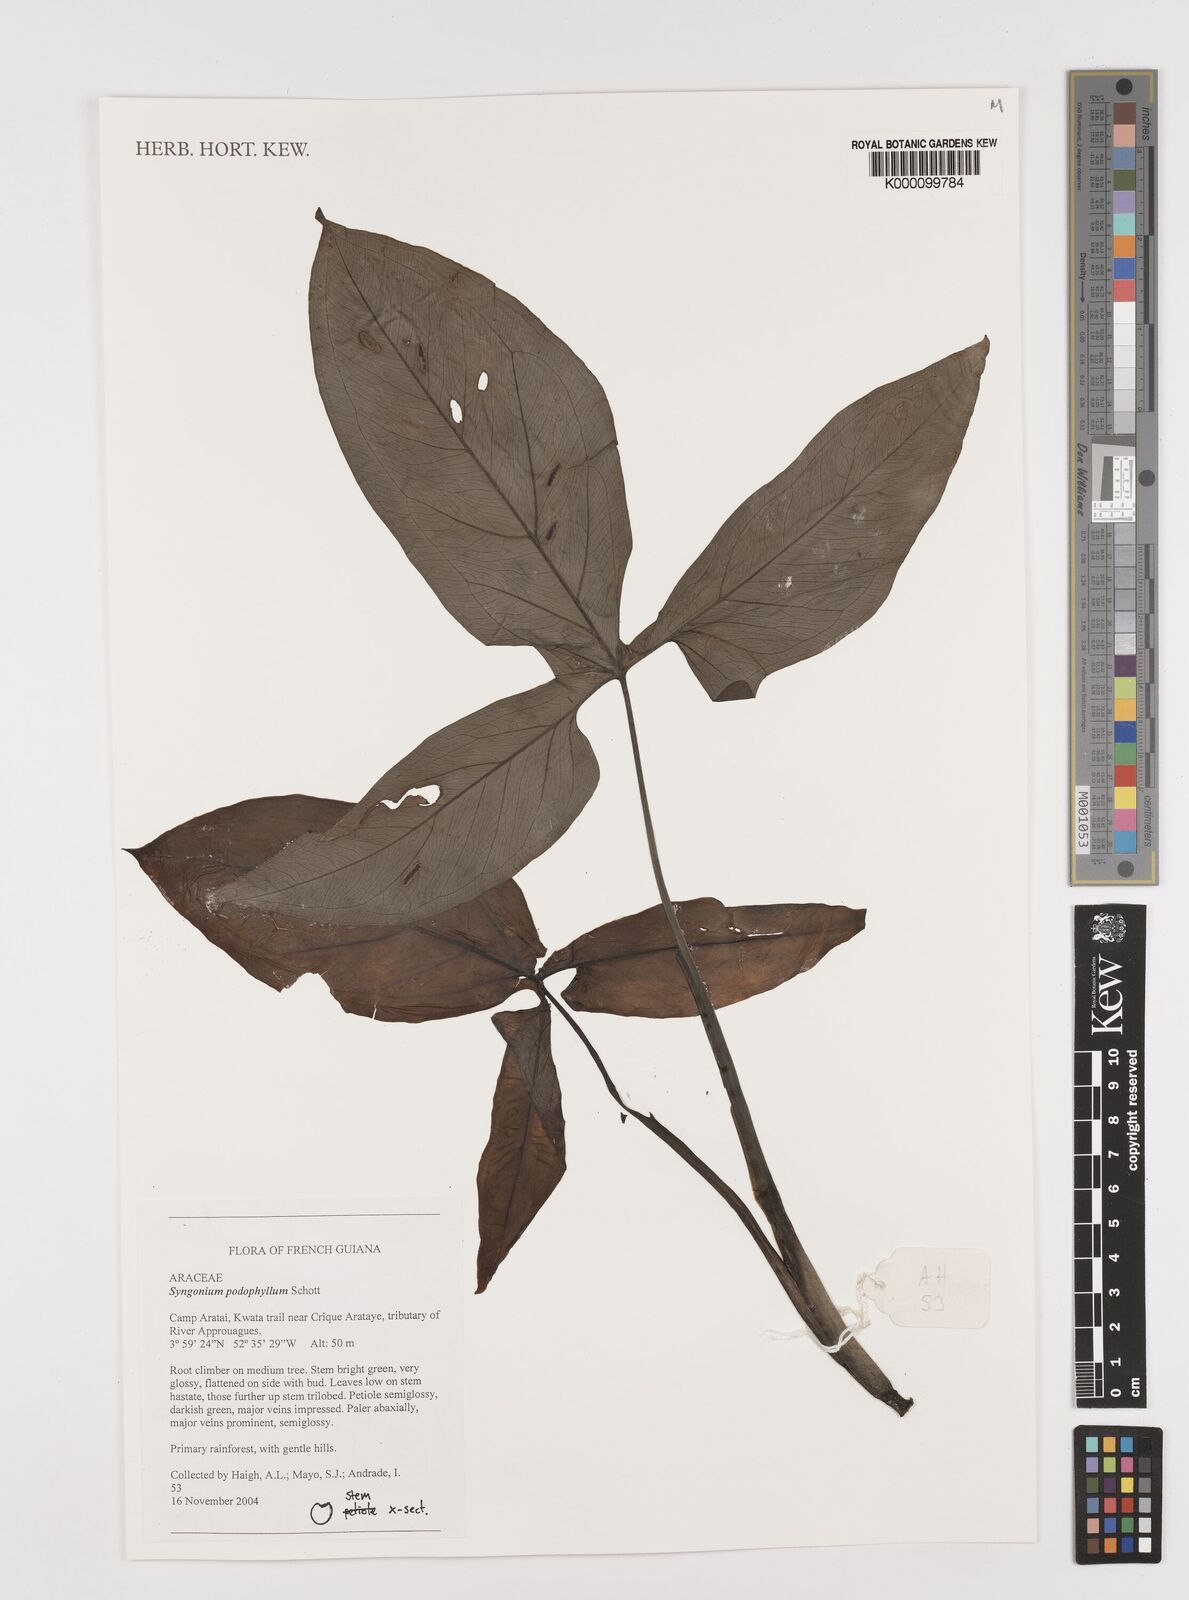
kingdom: Plantae
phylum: Tracheophyta
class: Liliopsida
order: Alismatales
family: Araceae
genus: Syngonium
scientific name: Syngonium podophyllum
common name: American evergreen
